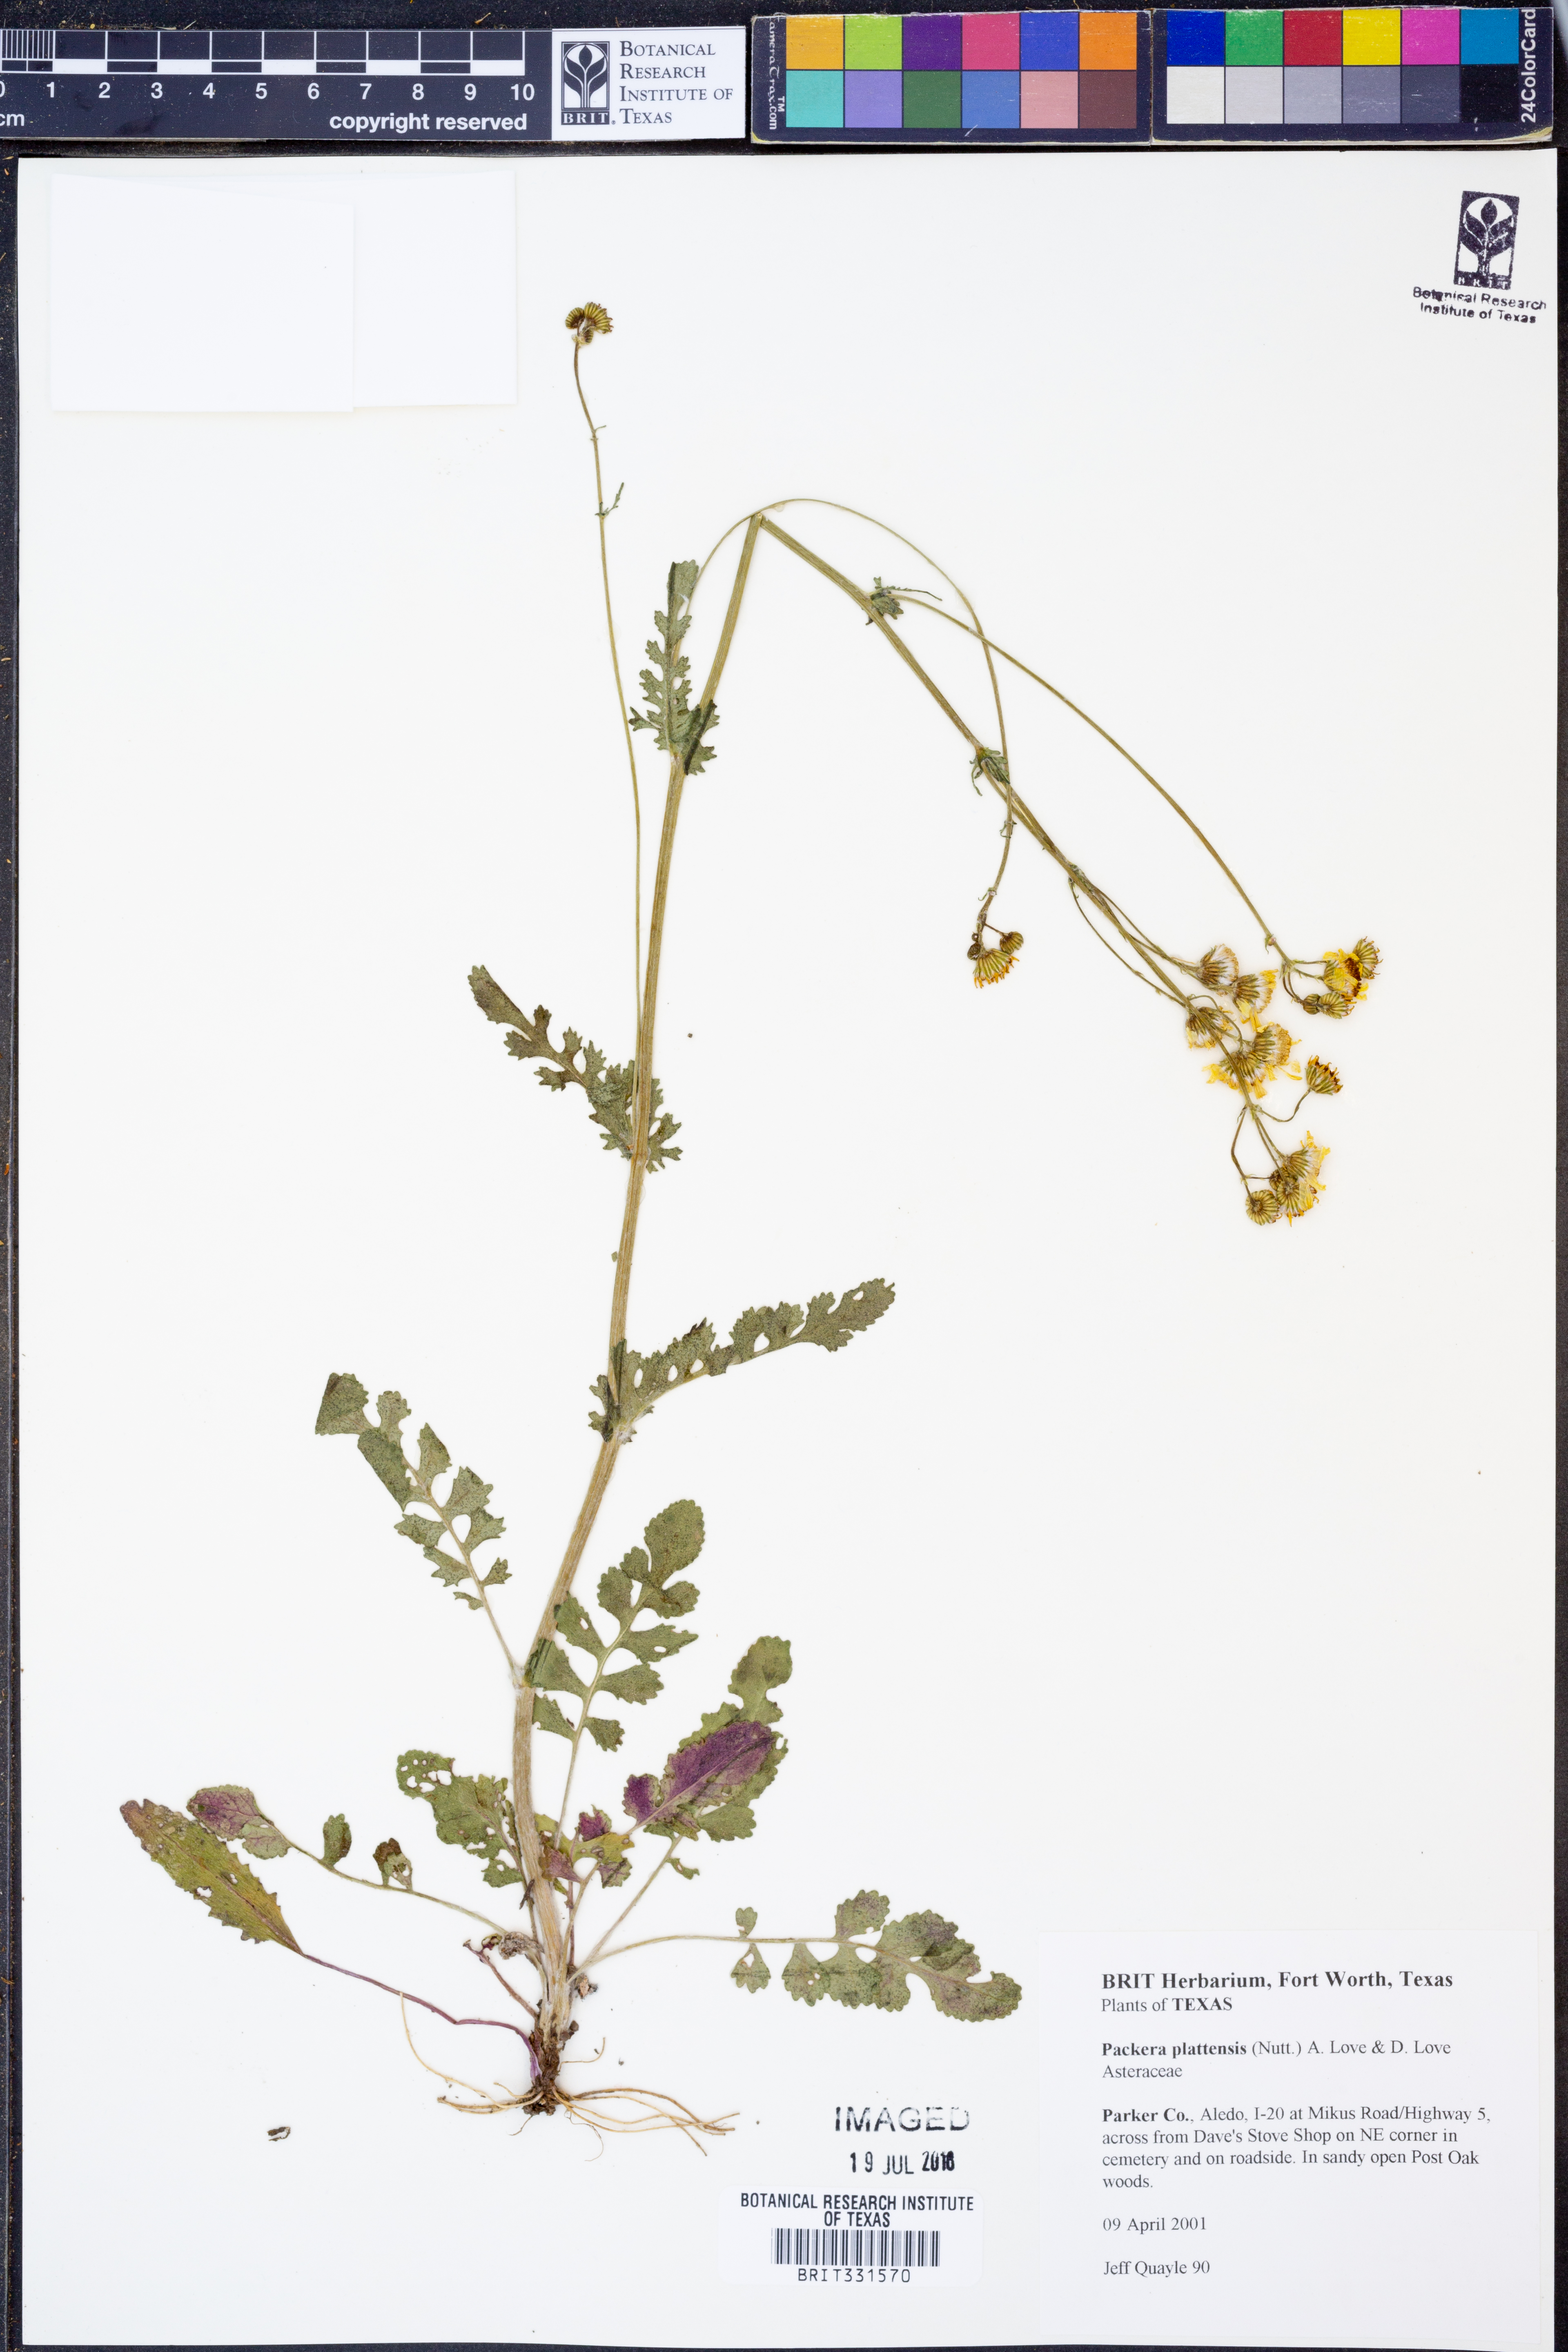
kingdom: Plantae
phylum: Tracheophyta
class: Magnoliopsida
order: Asterales
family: Asteraceae
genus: Packera
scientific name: Packera plattensis
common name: Prairie groundsel
